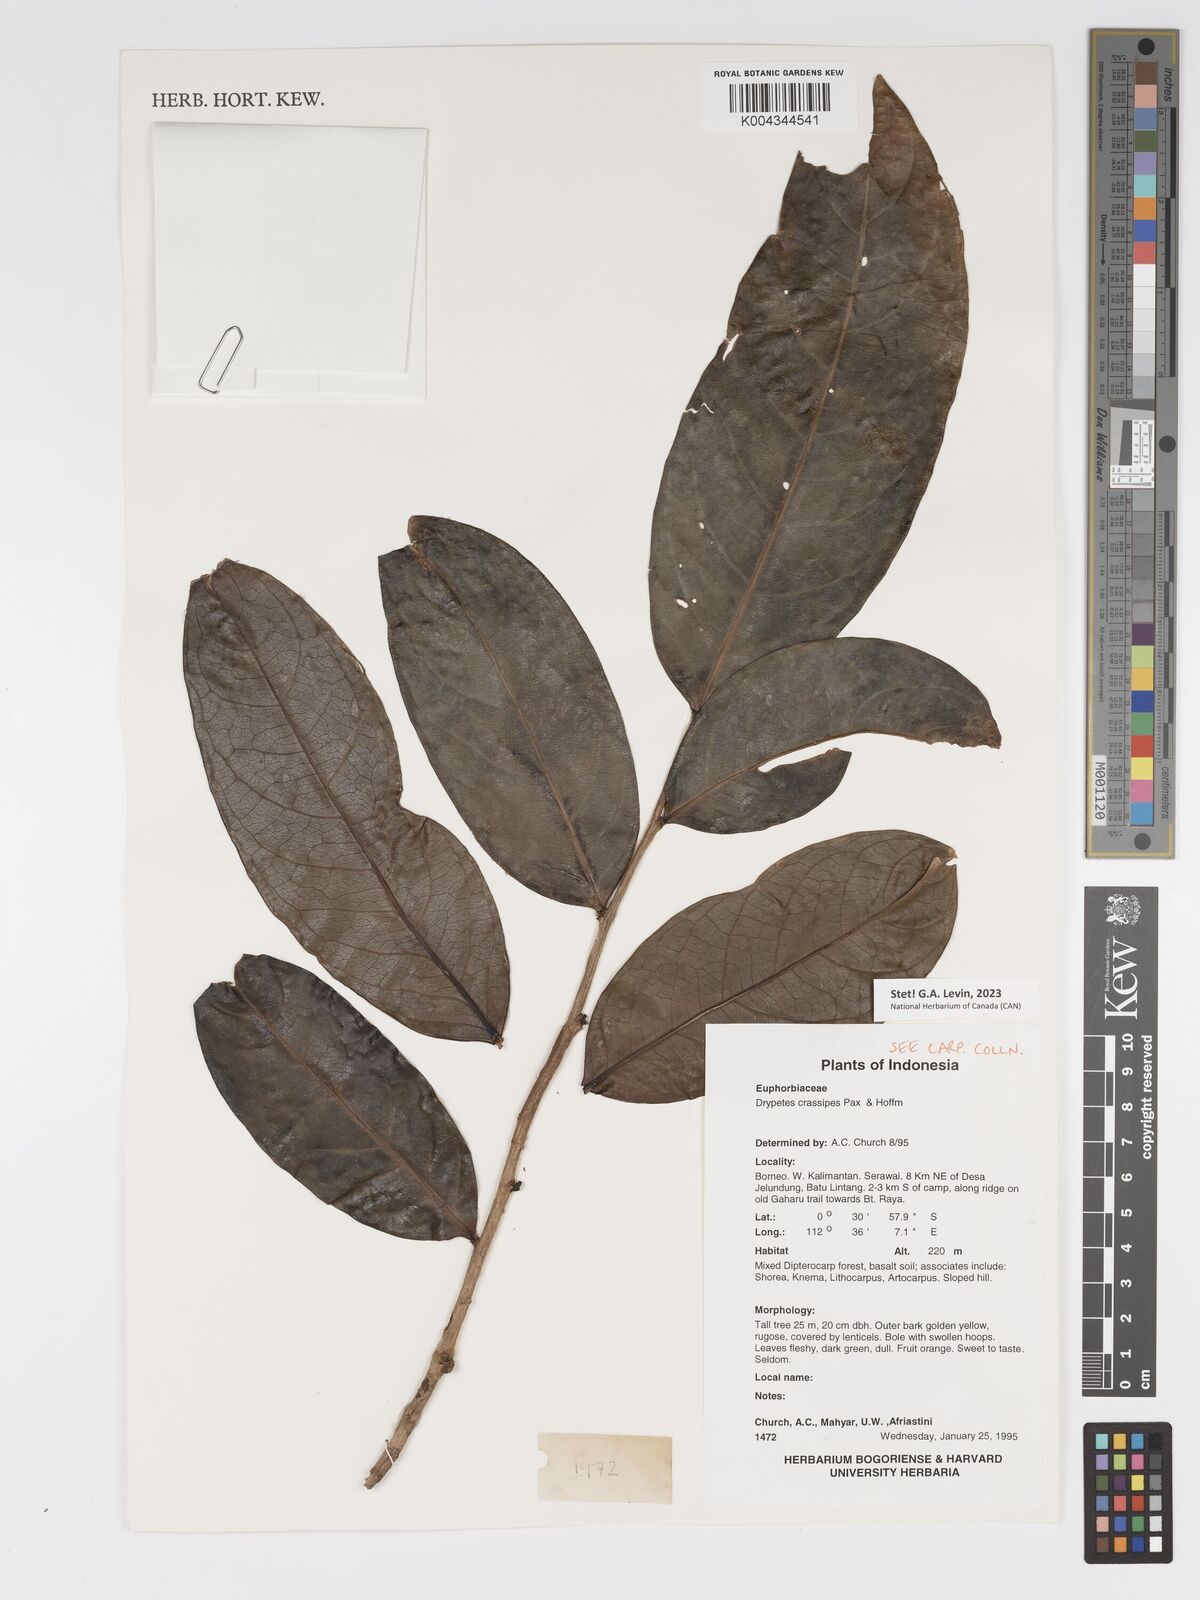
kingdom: Plantae
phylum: Tracheophyta
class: Magnoliopsida
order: Malpighiales
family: Putranjivaceae
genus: Drypetes
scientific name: Drypetes crassipes
